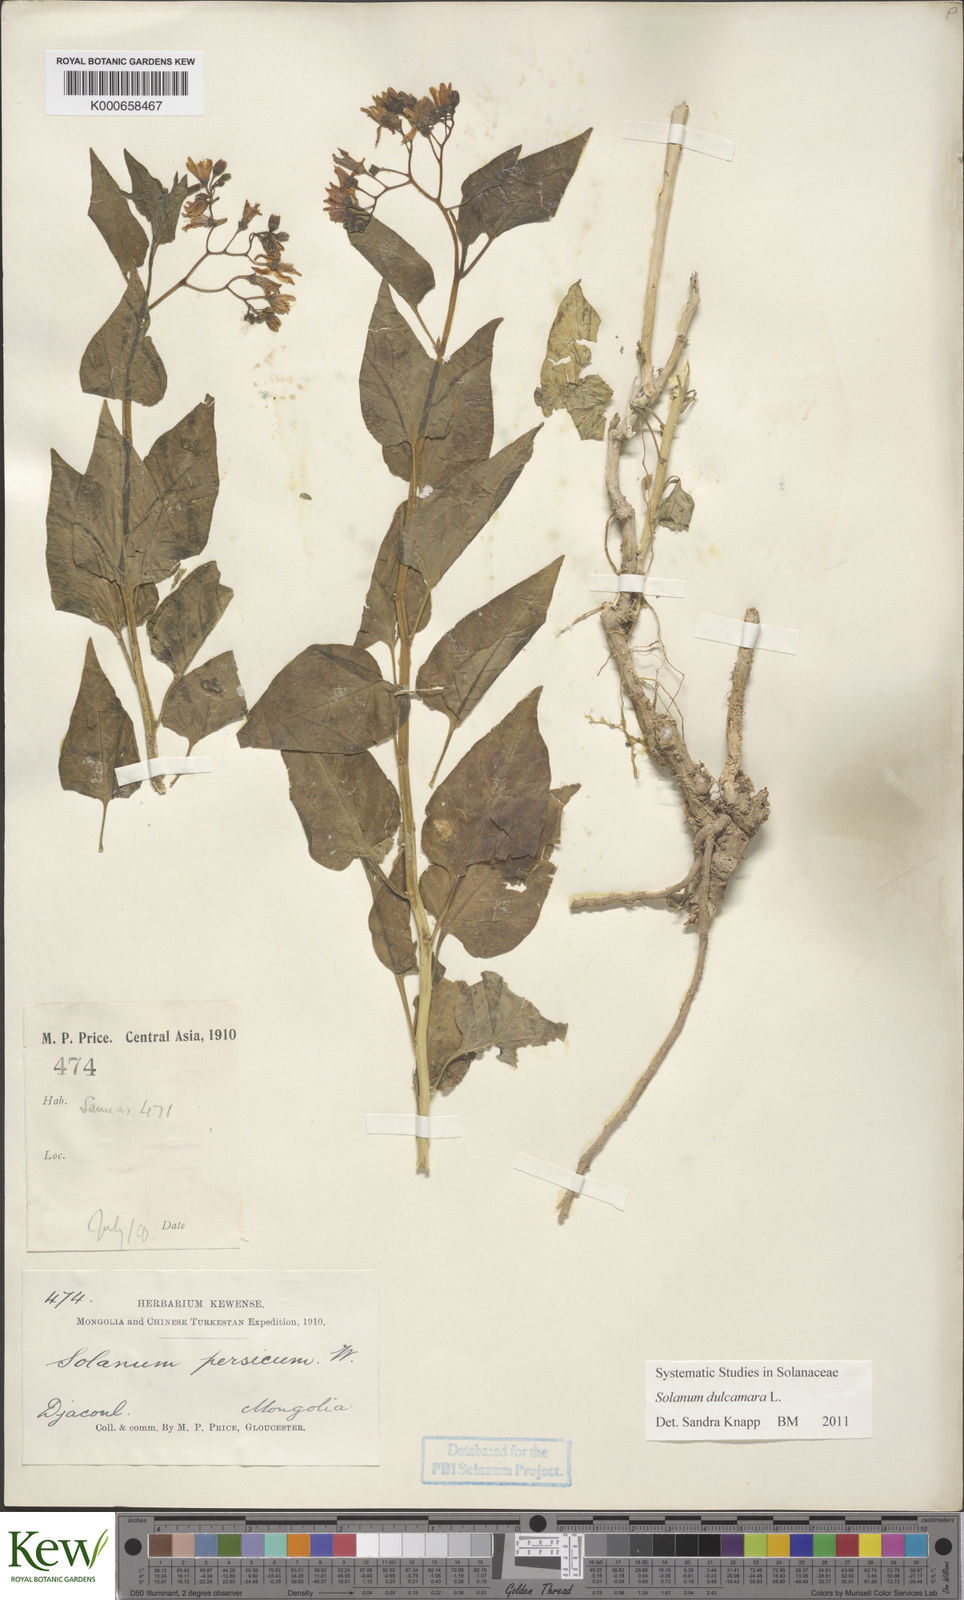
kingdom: Plantae
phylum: Tracheophyta
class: Magnoliopsida
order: Solanales
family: Solanaceae
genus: Solanum
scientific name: Solanum coriaceum
